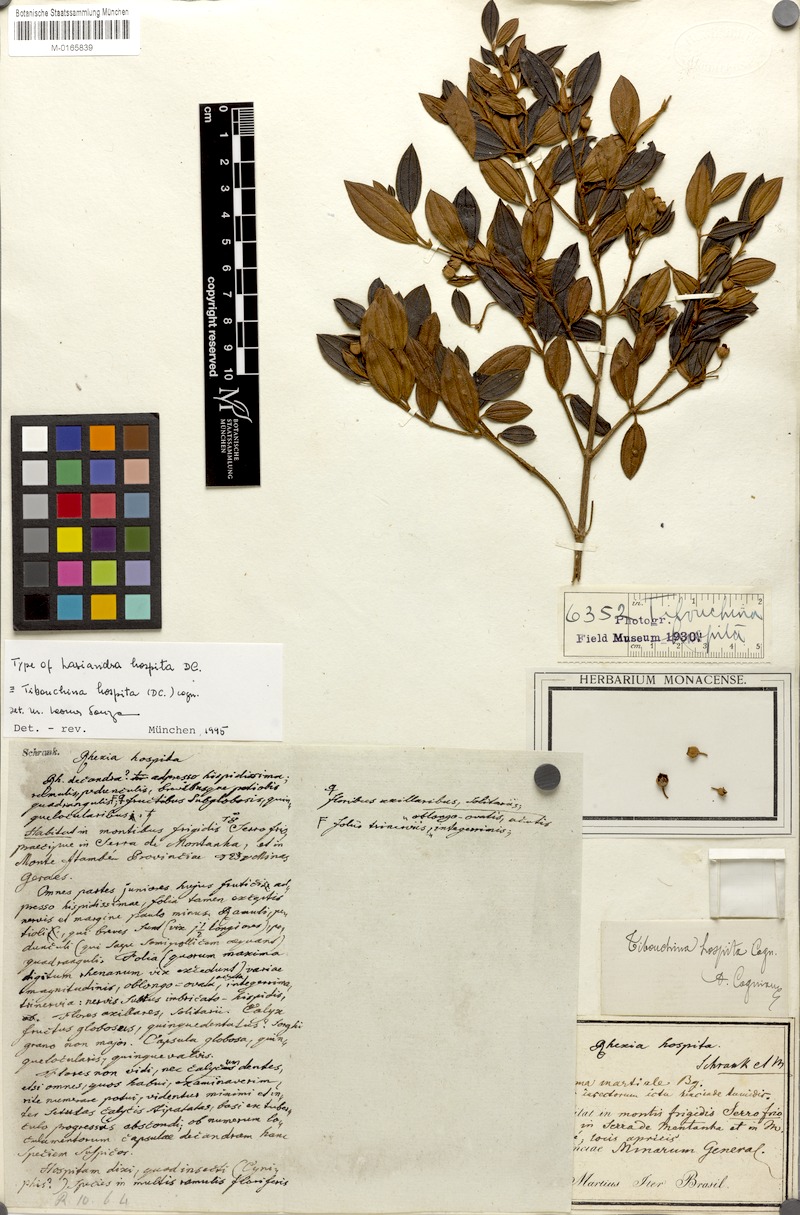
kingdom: Plantae
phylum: Tracheophyta
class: Magnoliopsida
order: Myrtales
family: Melastomataceae
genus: Pleroma
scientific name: Pleroma hospitum
